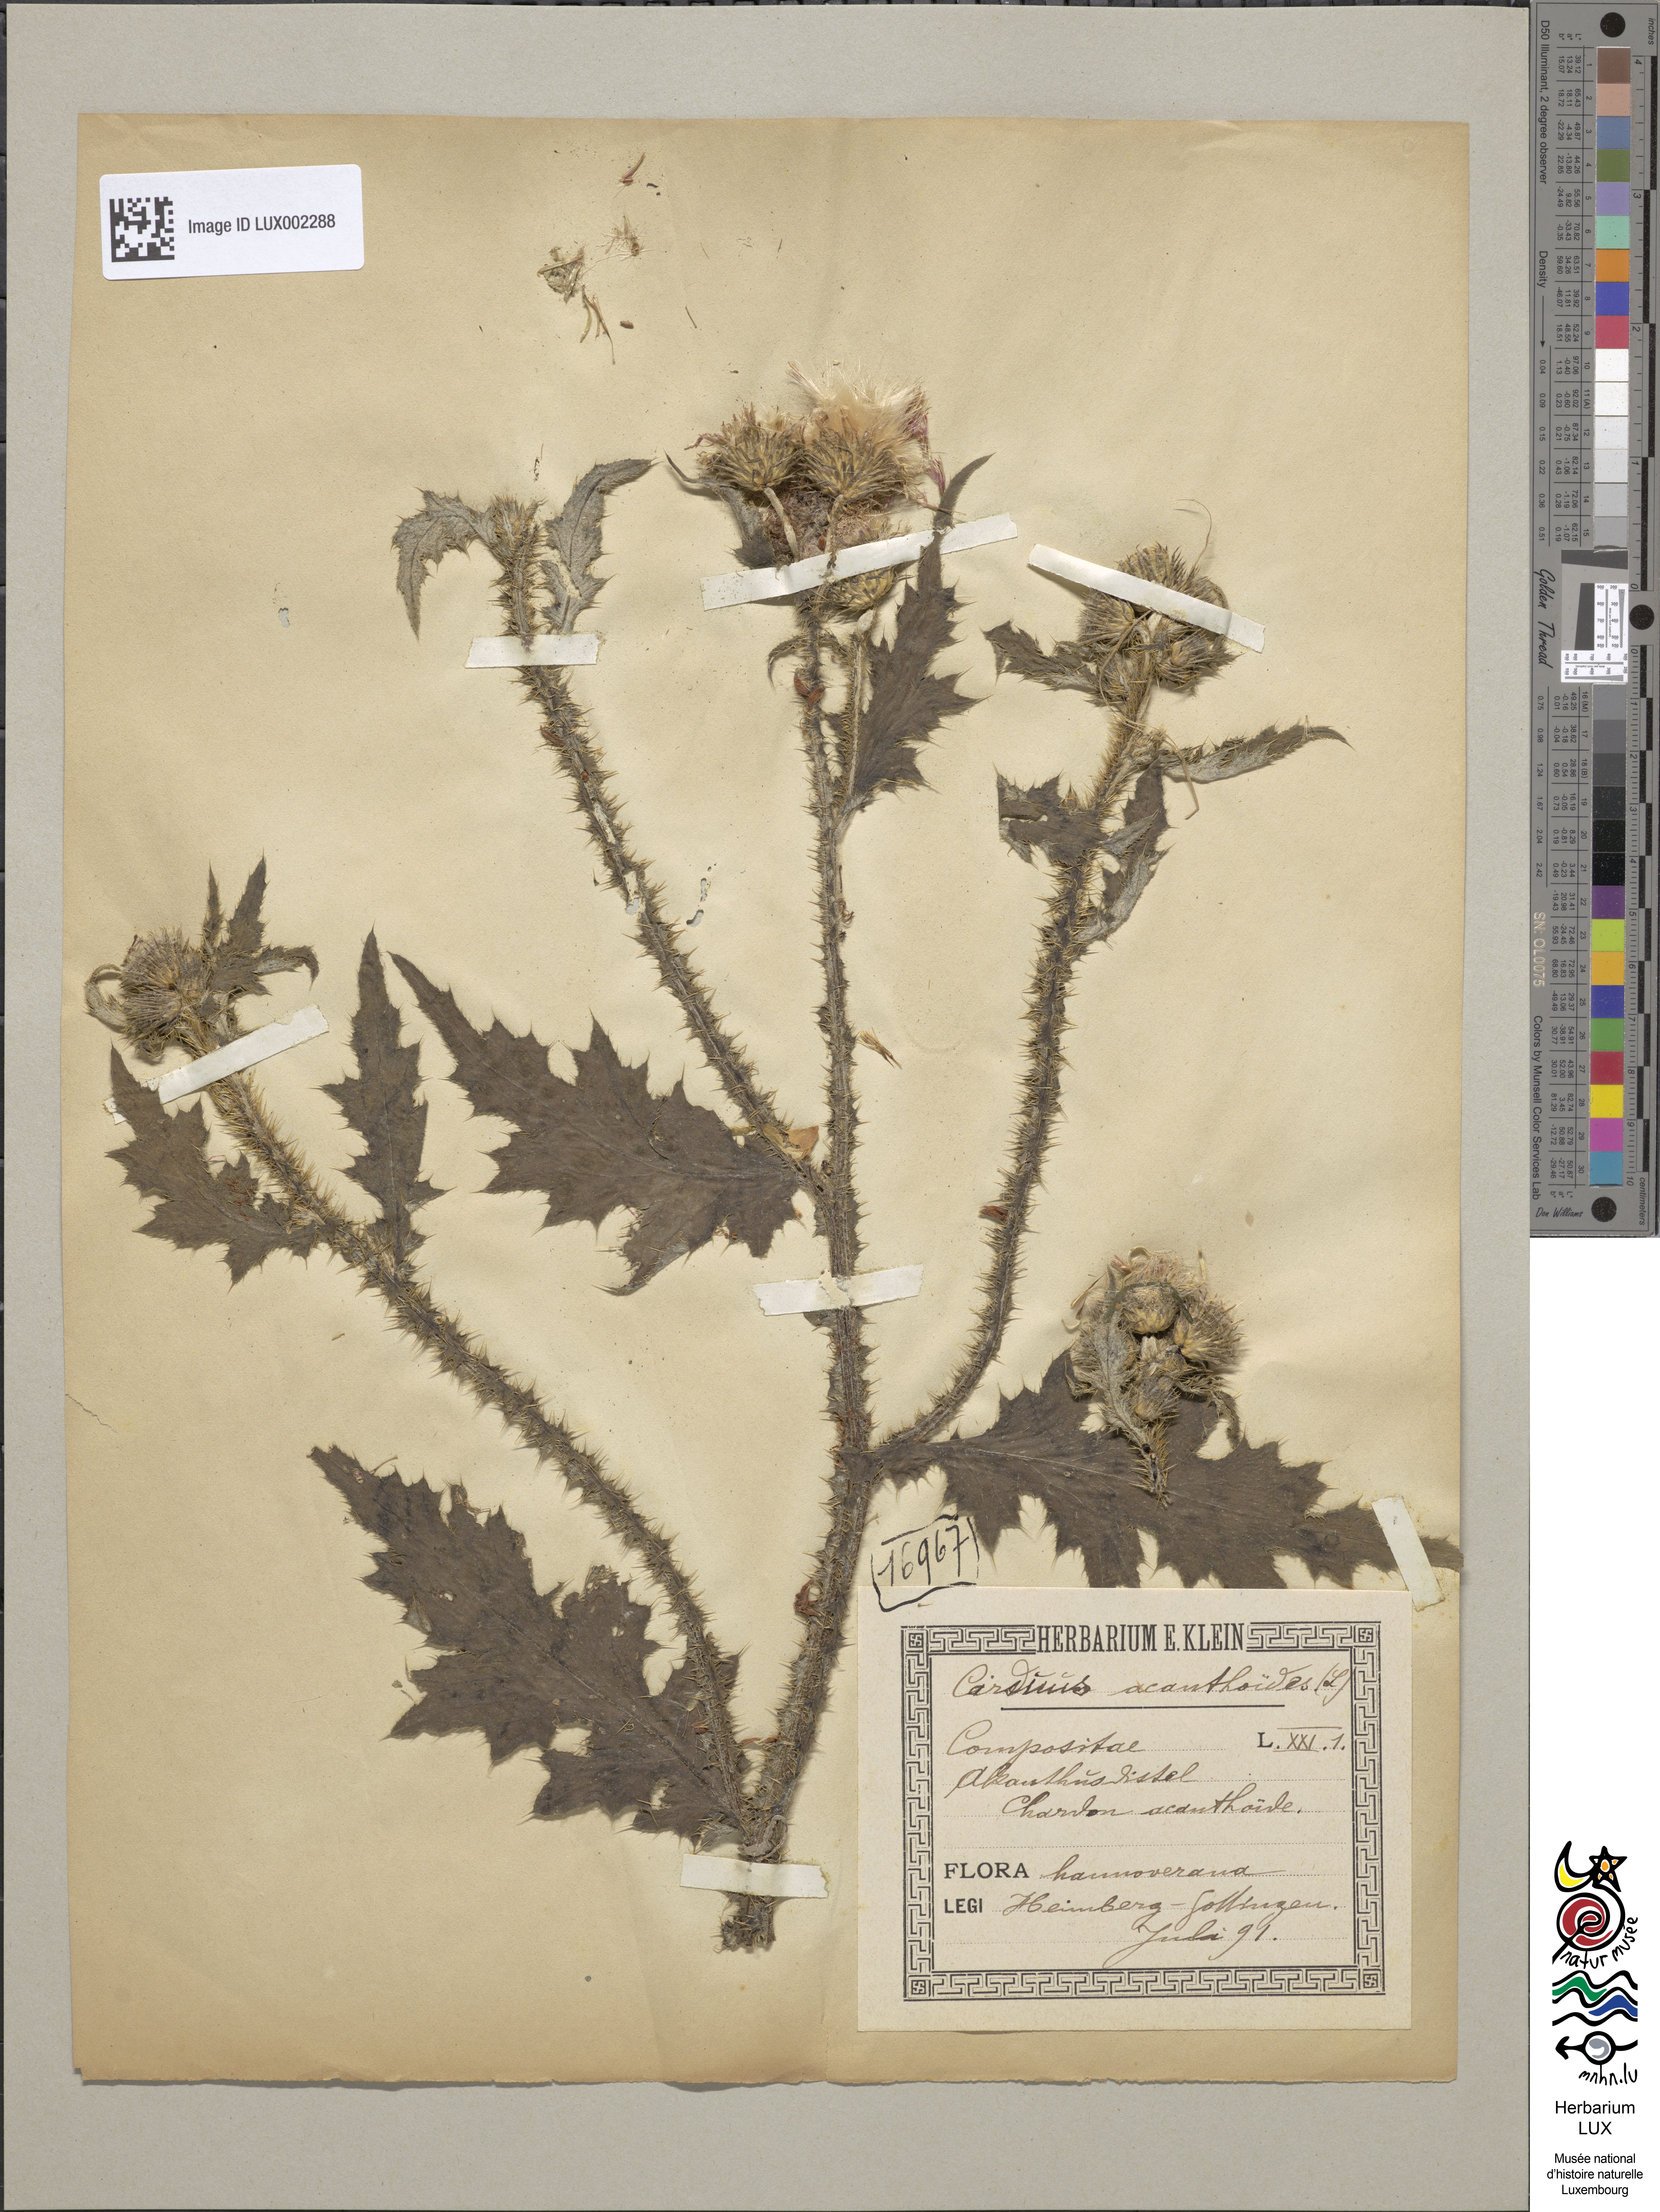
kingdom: Plantae
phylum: Tracheophyta
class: Magnoliopsida
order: Asterales
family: Asteraceae
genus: Carduus
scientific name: Carduus acanthoides
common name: Plumeless thistle
